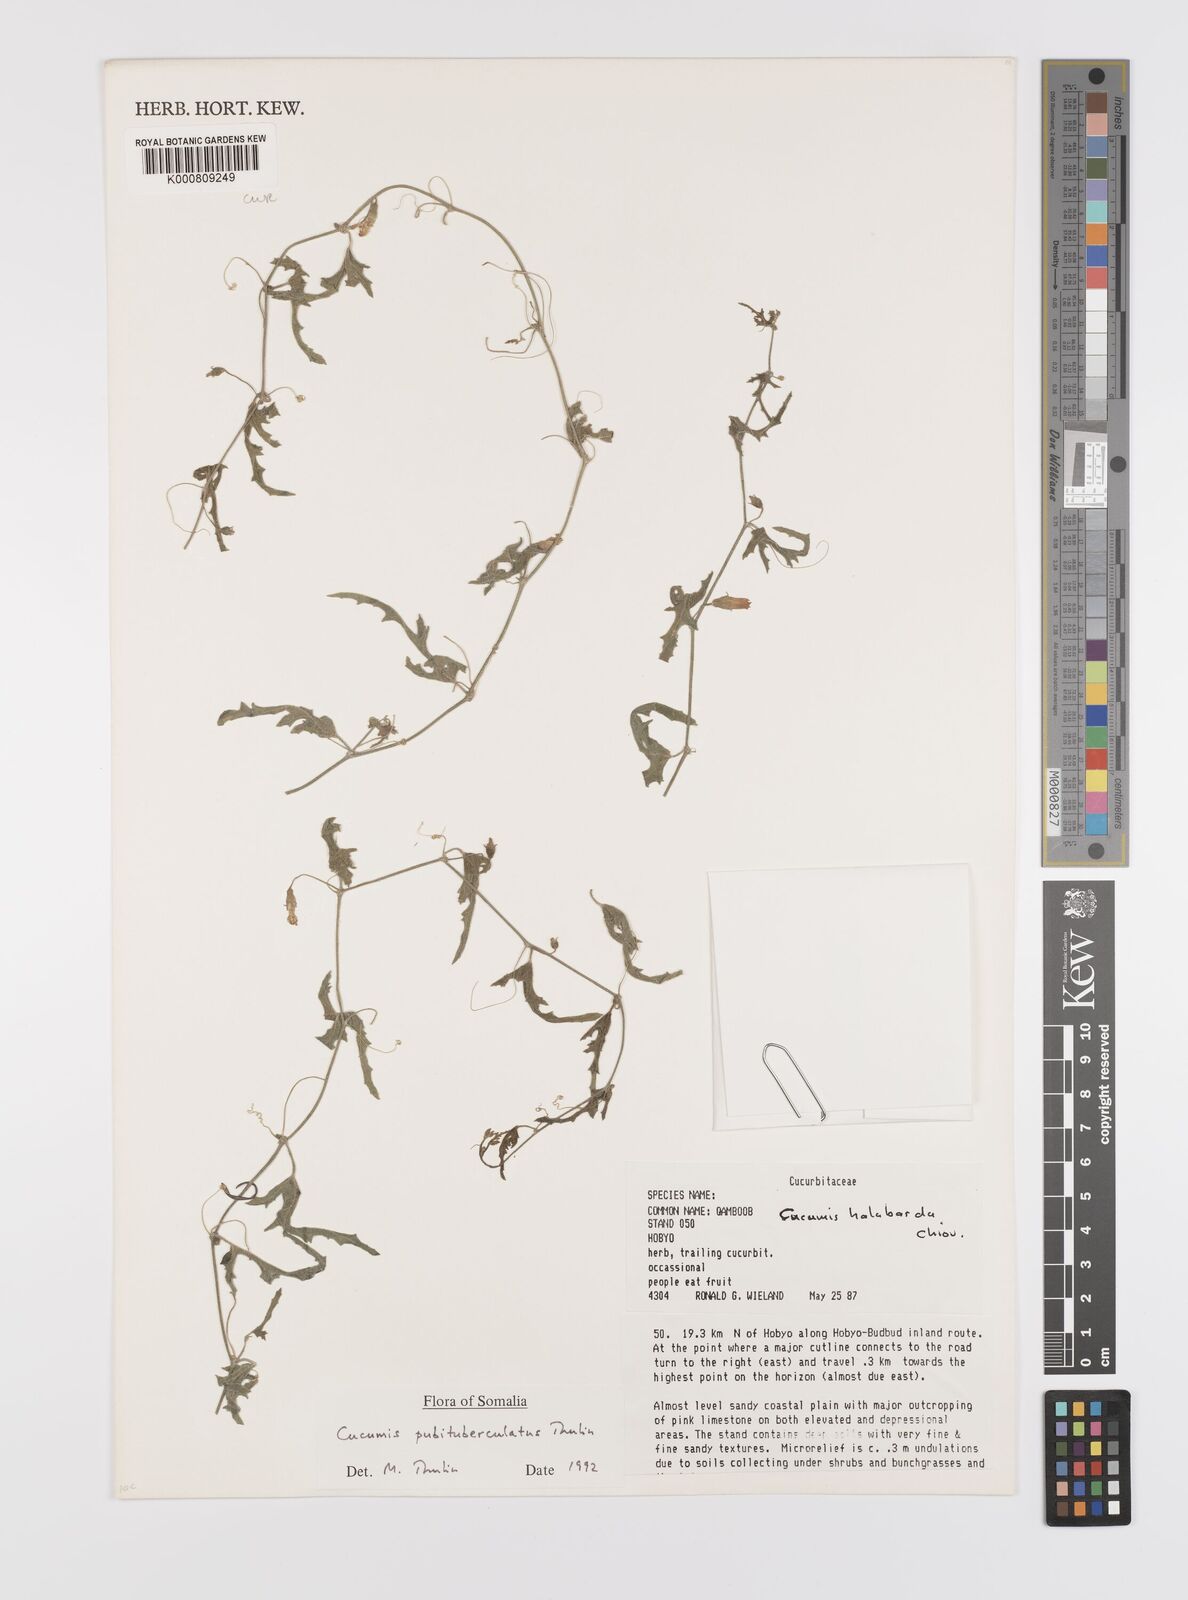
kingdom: Plantae
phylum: Tracheophyta
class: Magnoliopsida
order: Cucurbitales
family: Cucurbitaceae
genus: Cucumis
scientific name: Cucumis prophetarum
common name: Wild cucumber
